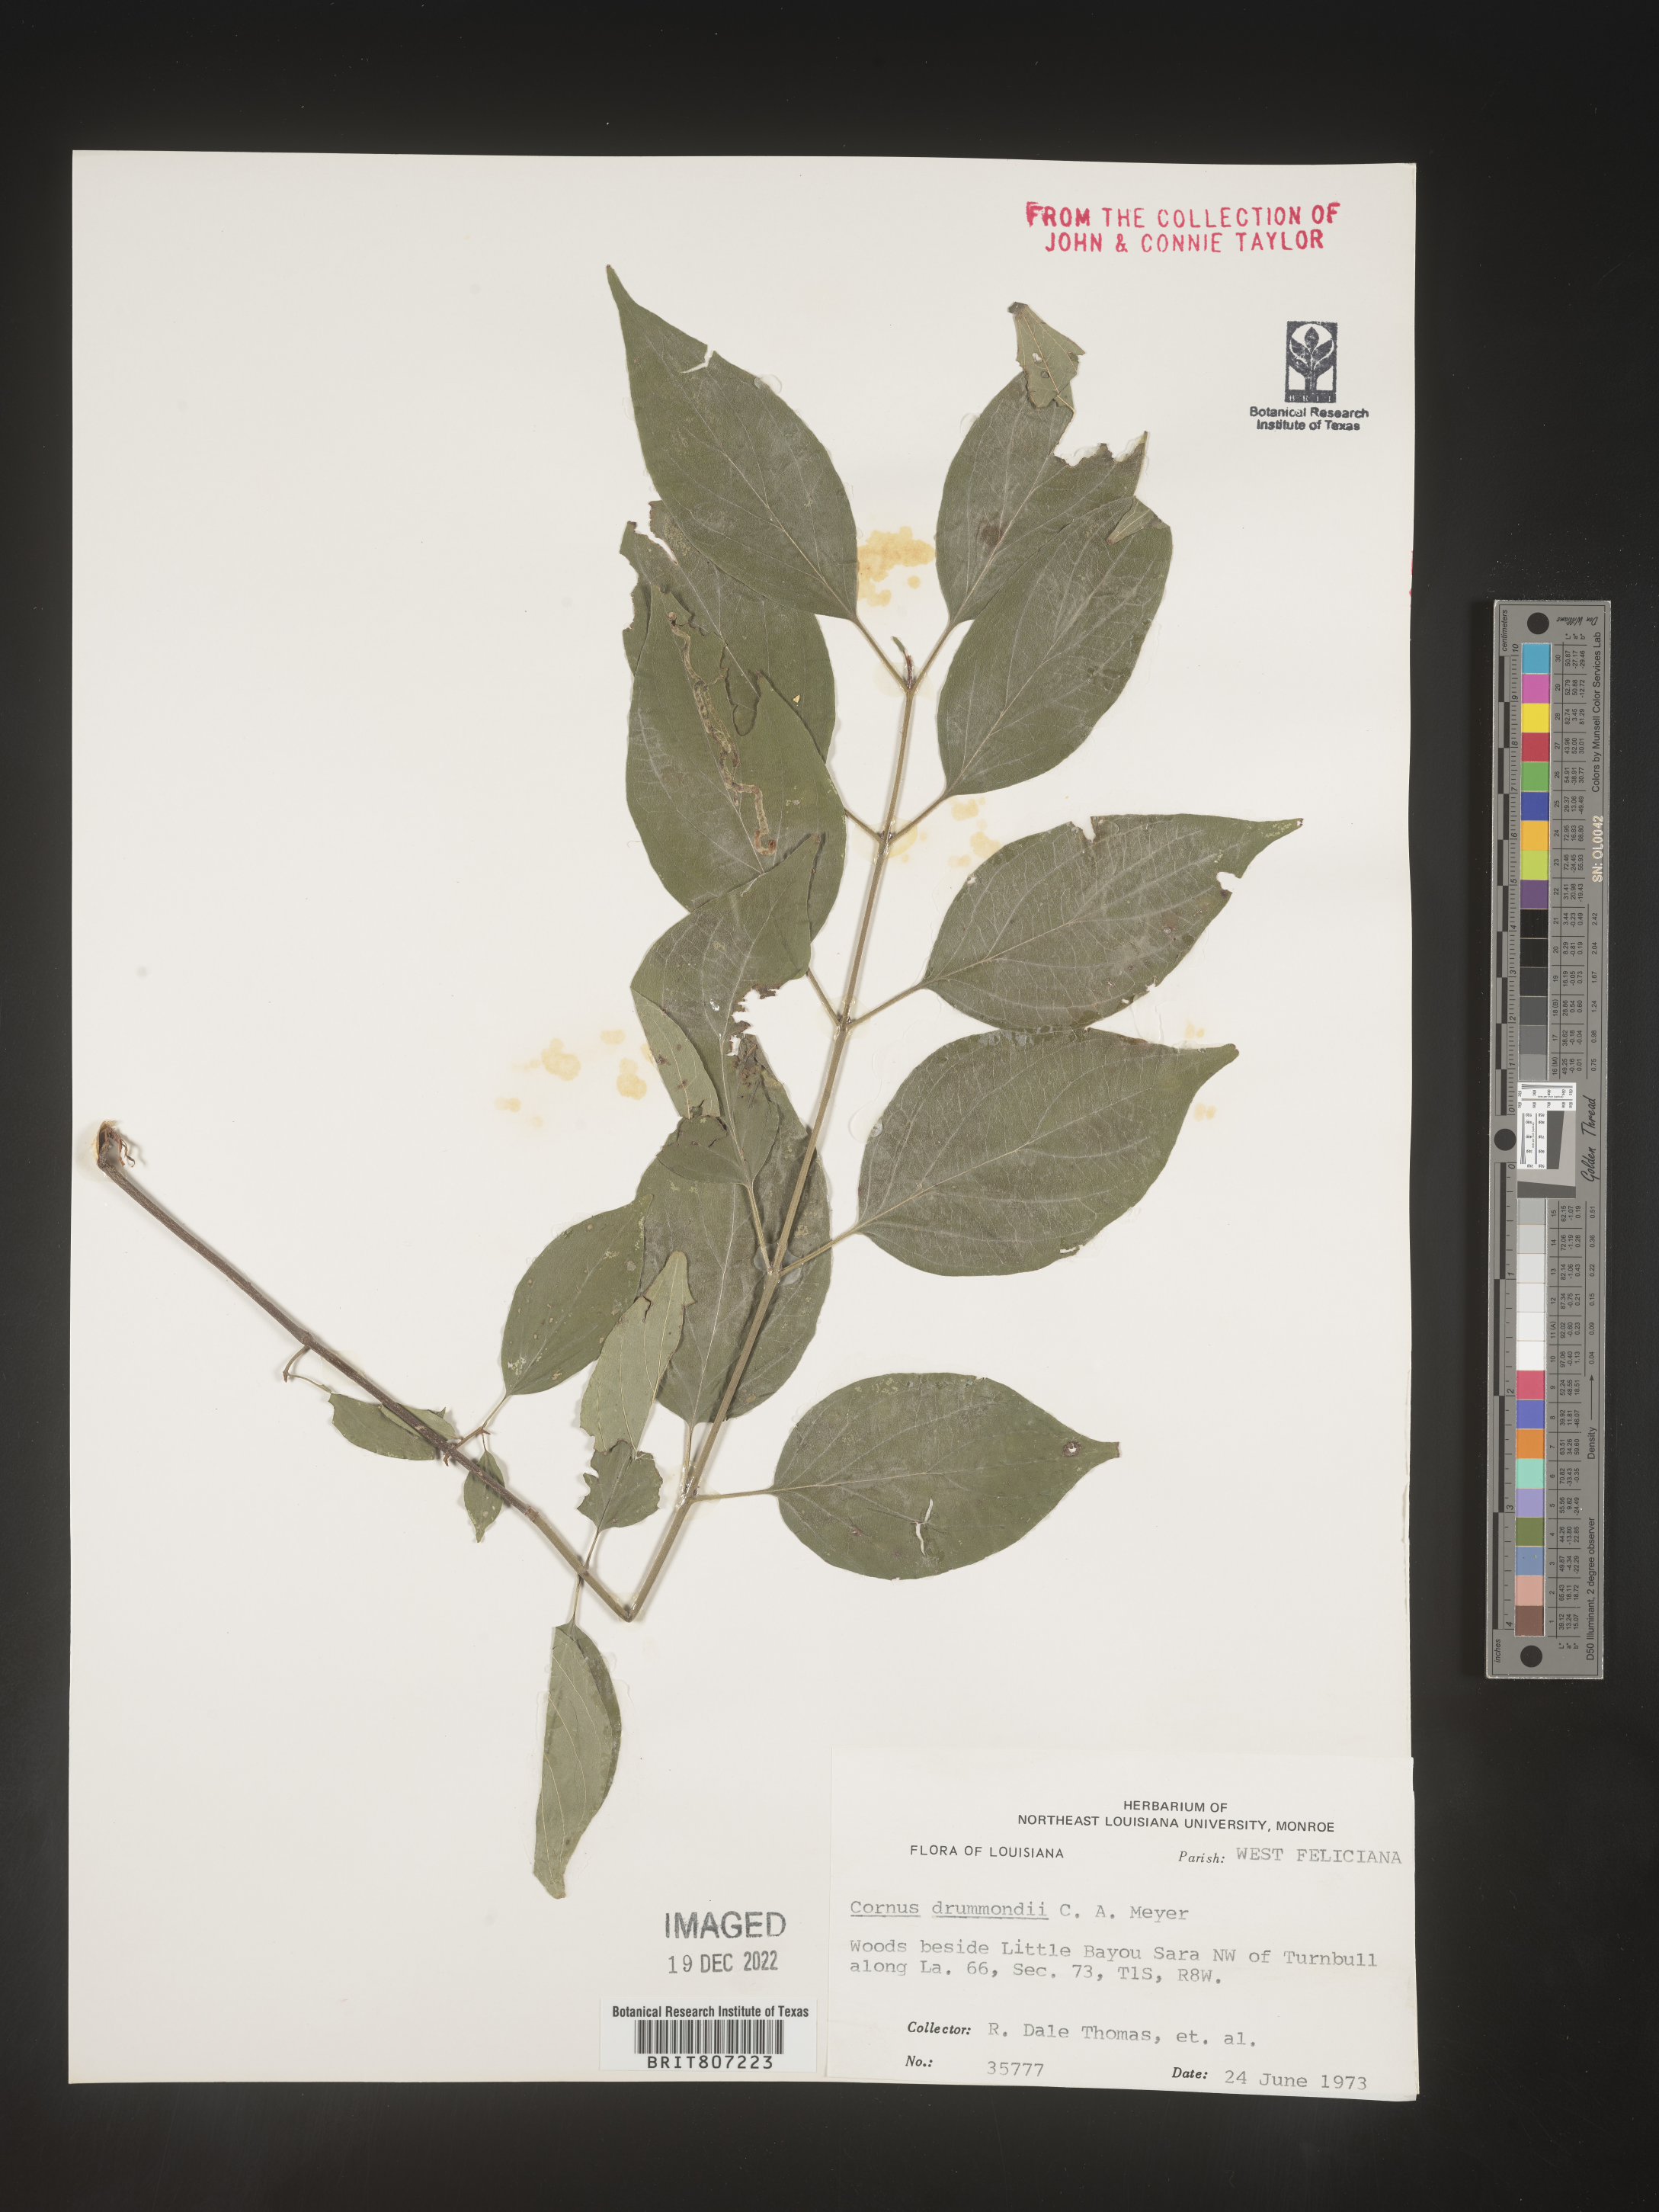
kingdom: Plantae
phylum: Tracheophyta
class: Magnoliopsida
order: Cornales
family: Cornaceae
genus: Cornus
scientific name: Cornus drummondii
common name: Rough-leaf dogwood
